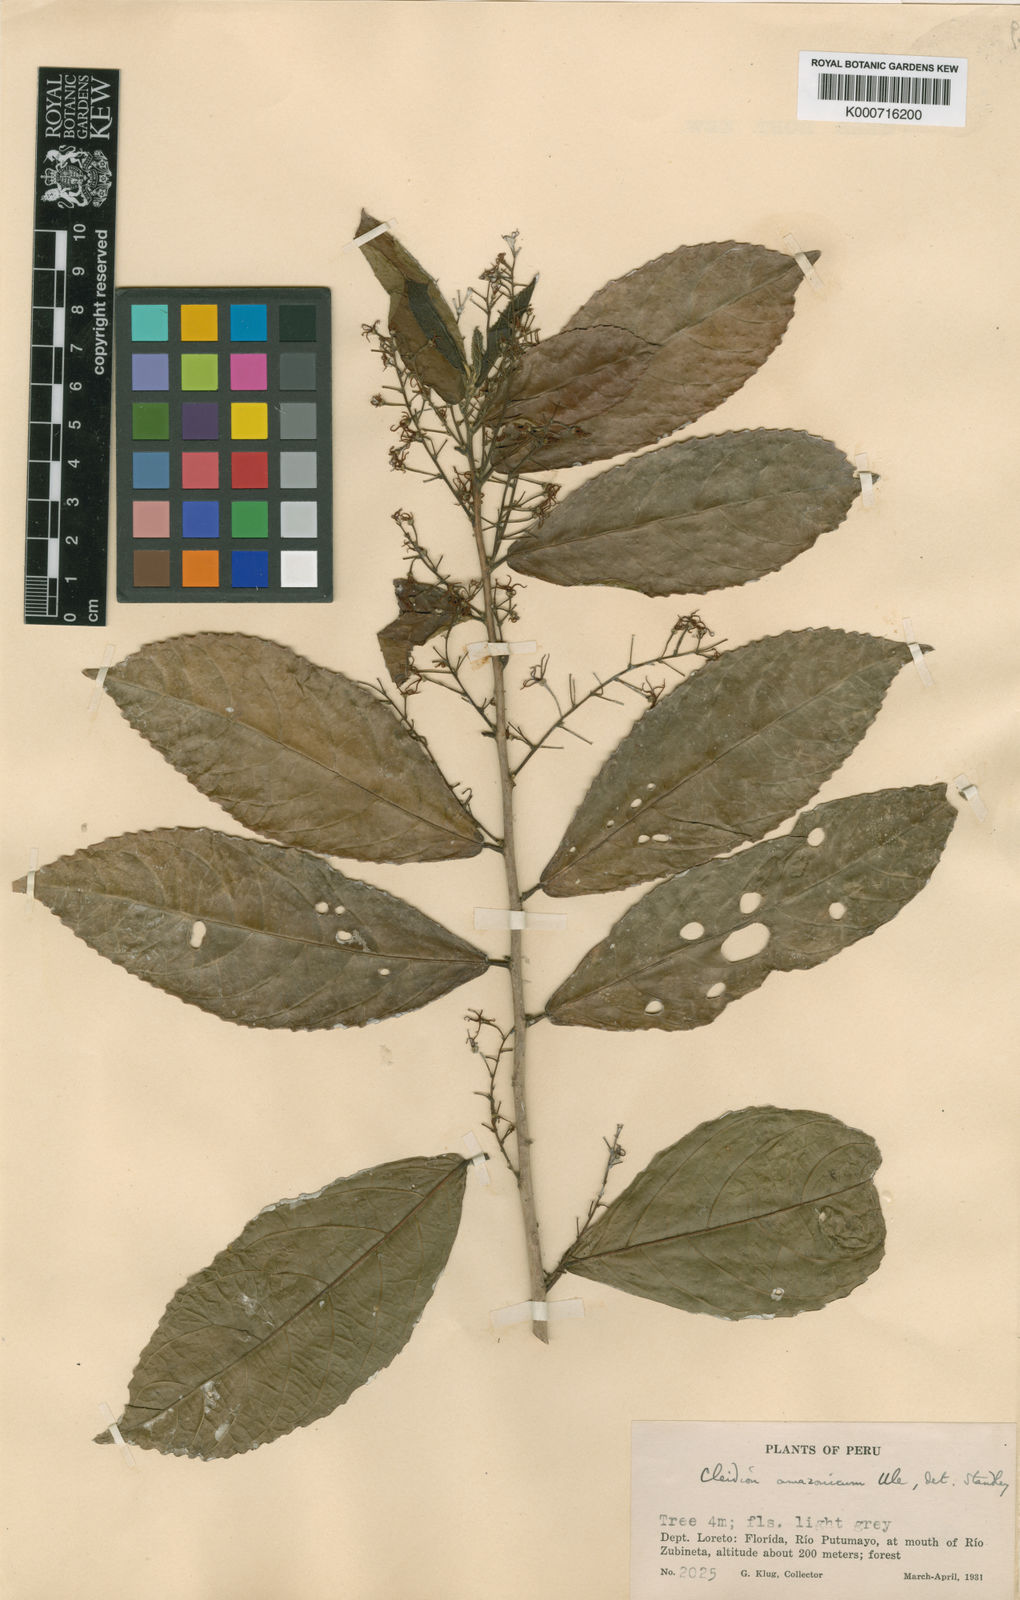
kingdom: Plantae
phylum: Tracheophyta
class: Magnoliopsida
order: Malpighiales
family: Euphorbiaceae
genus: Cleidion
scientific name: Cleidion amazonicum
